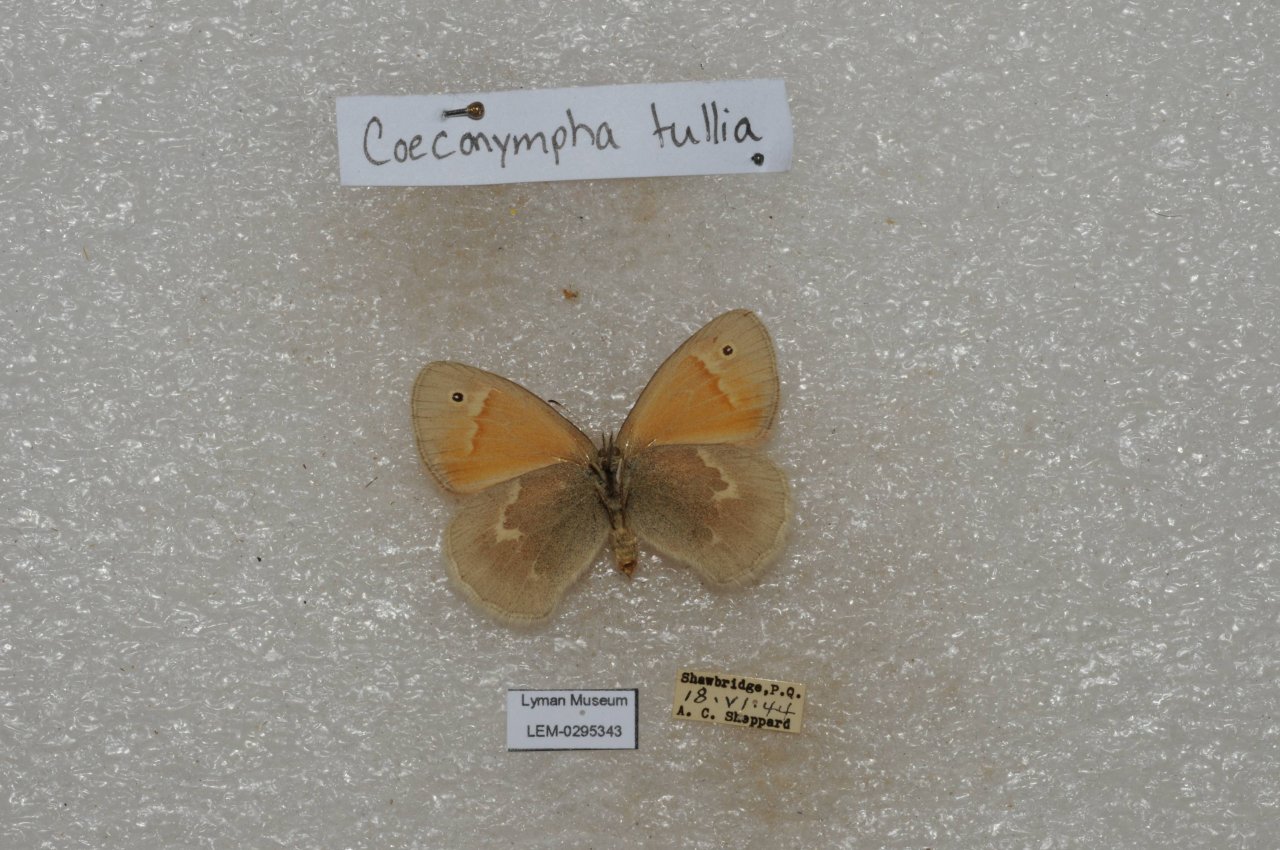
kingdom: Animalia
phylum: Arthropoda
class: Insecta
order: Lepidoptera
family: Nymphalidae
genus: Coenonympha
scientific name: Coenonympha tullia
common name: Large Heath
